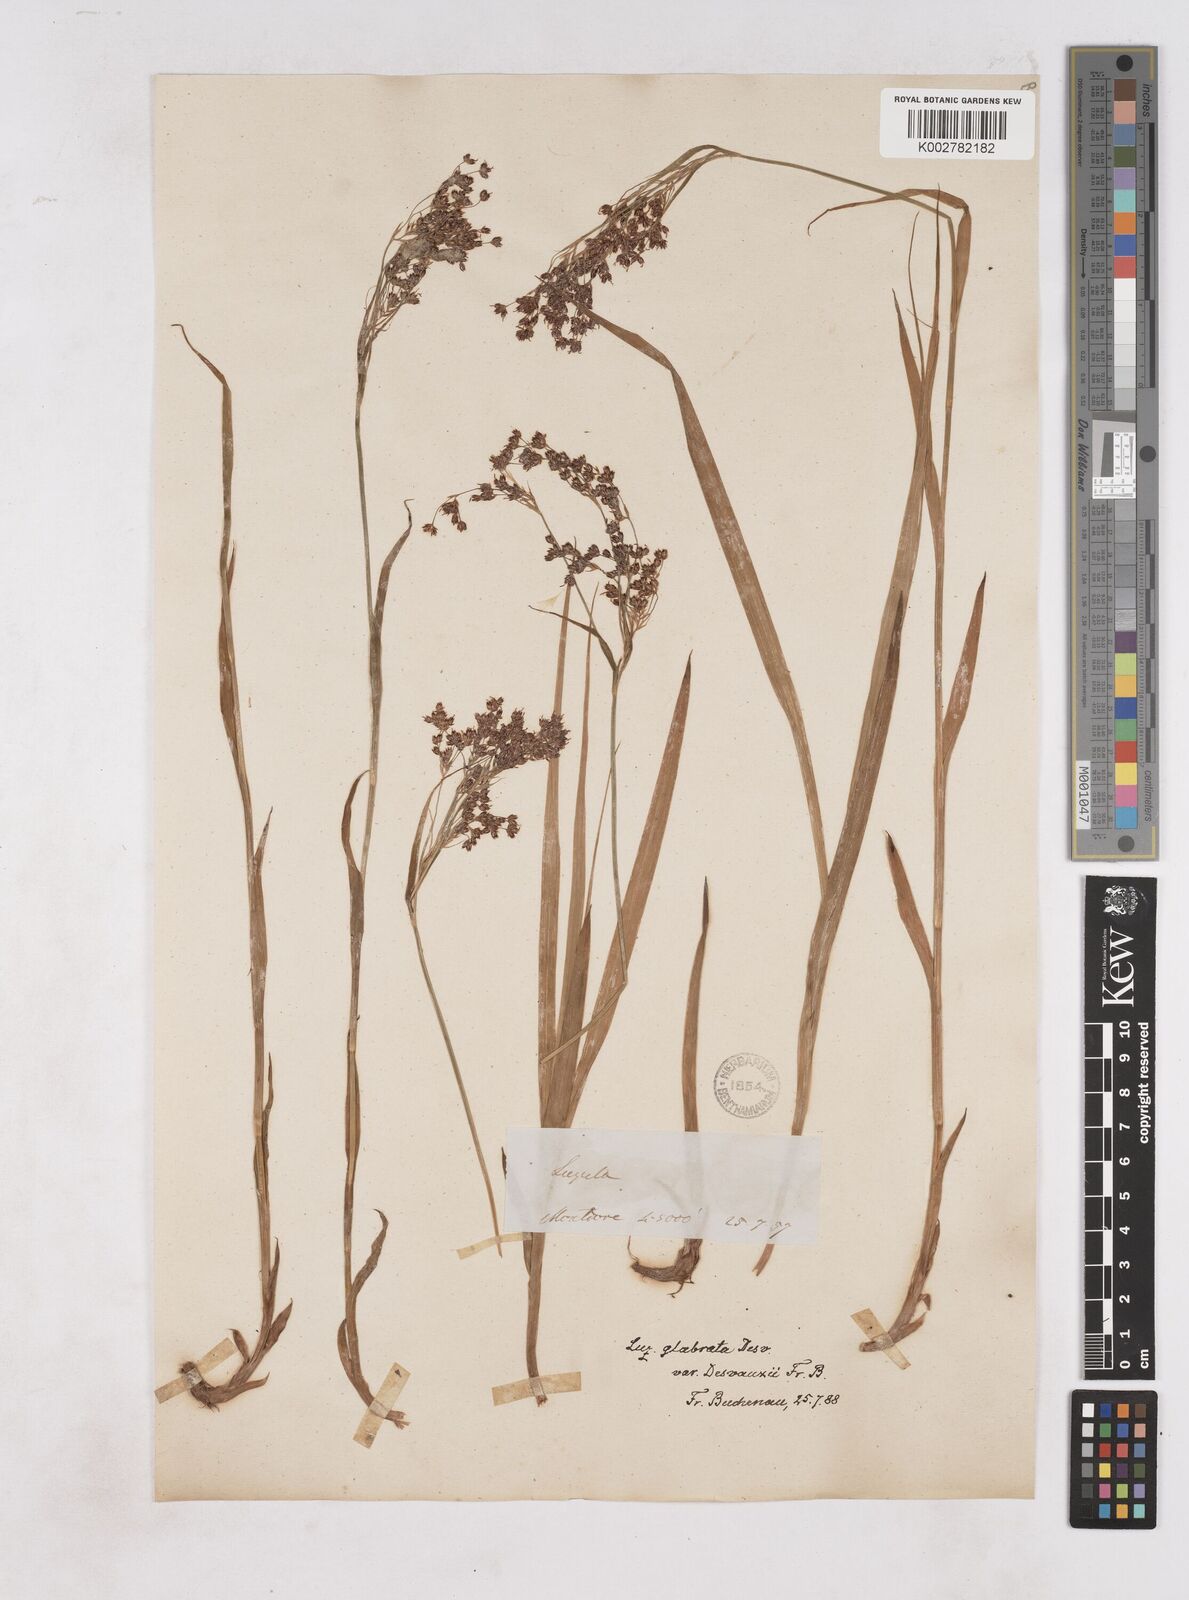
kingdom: Plantae
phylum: Tracheophyta
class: Liliopsida
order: Poales
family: Juncaceae
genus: Luzula
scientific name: Luzula glabrata
